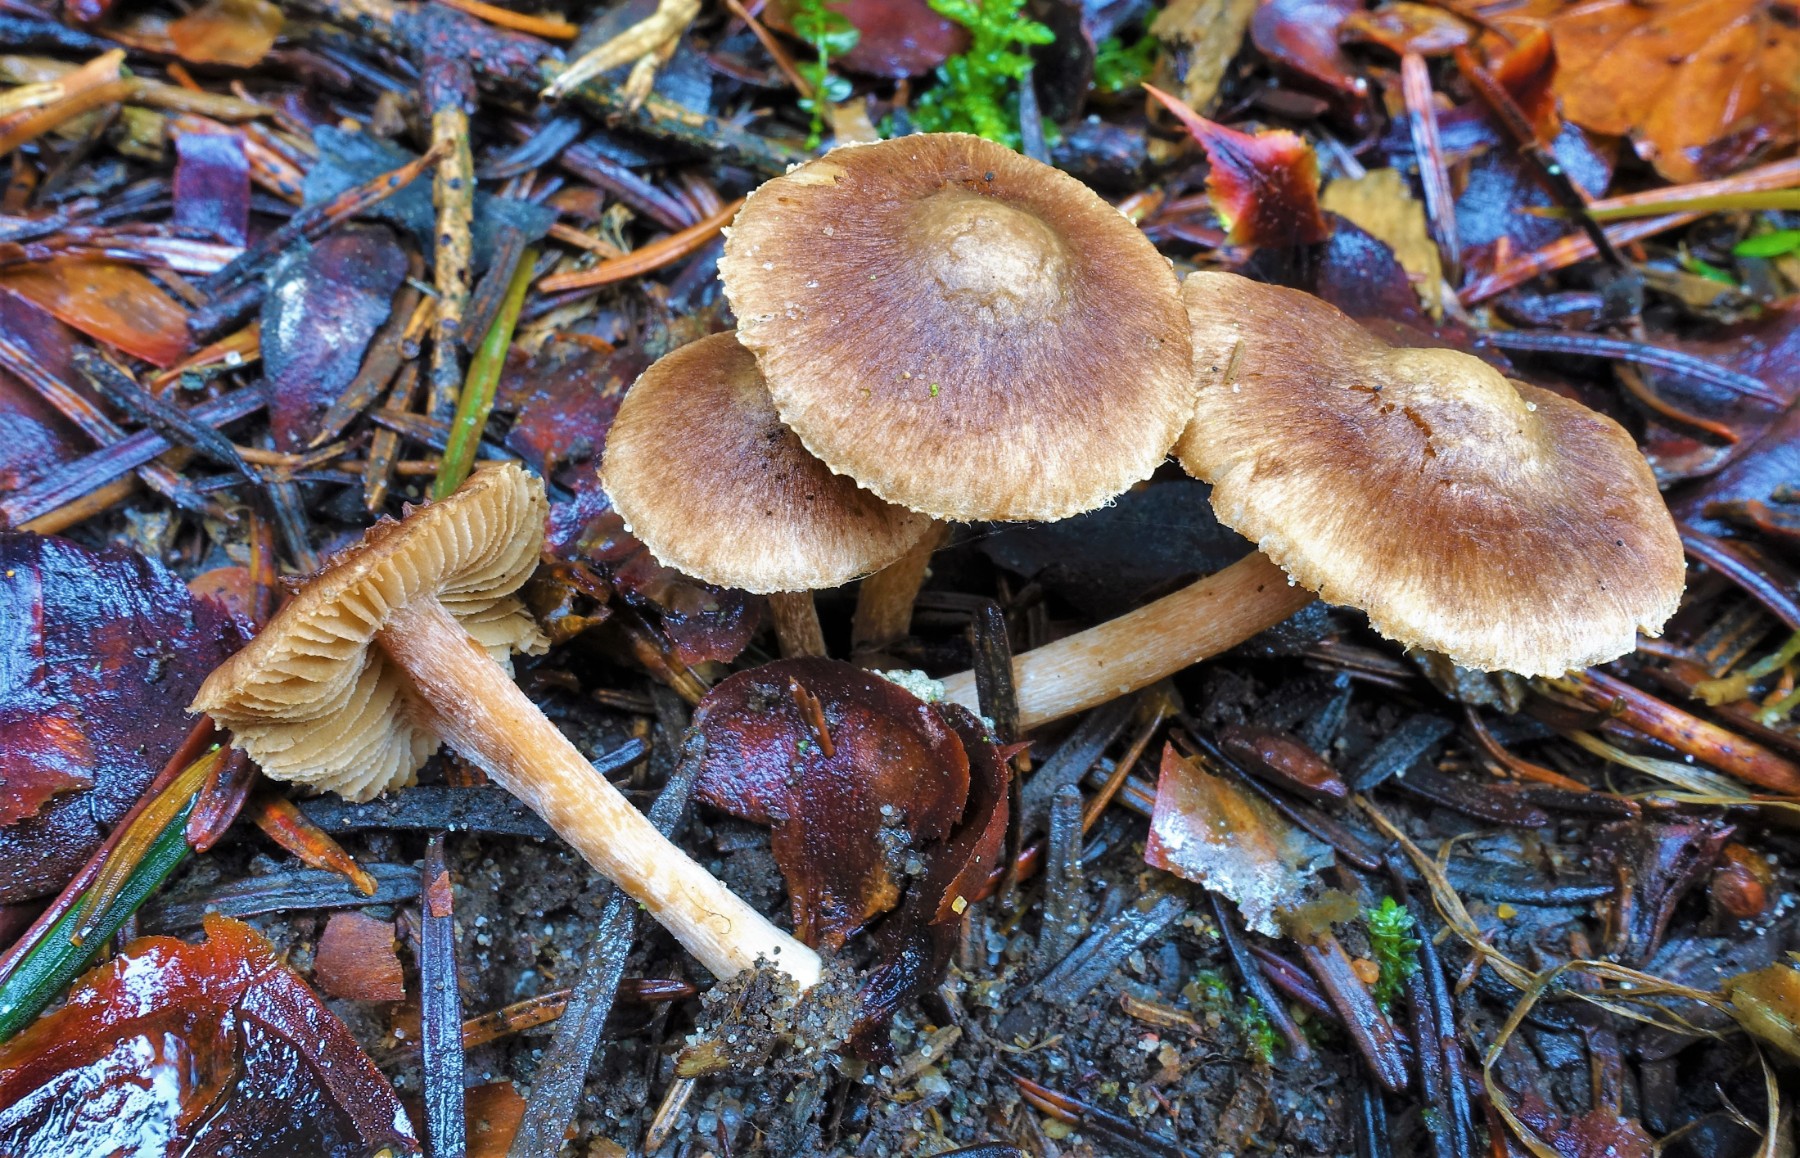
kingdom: Fungi
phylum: Basidiomycota
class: Agaricomycetes
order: Agaricales
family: Inocybaceae
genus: Inocybe
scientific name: Inocybe
